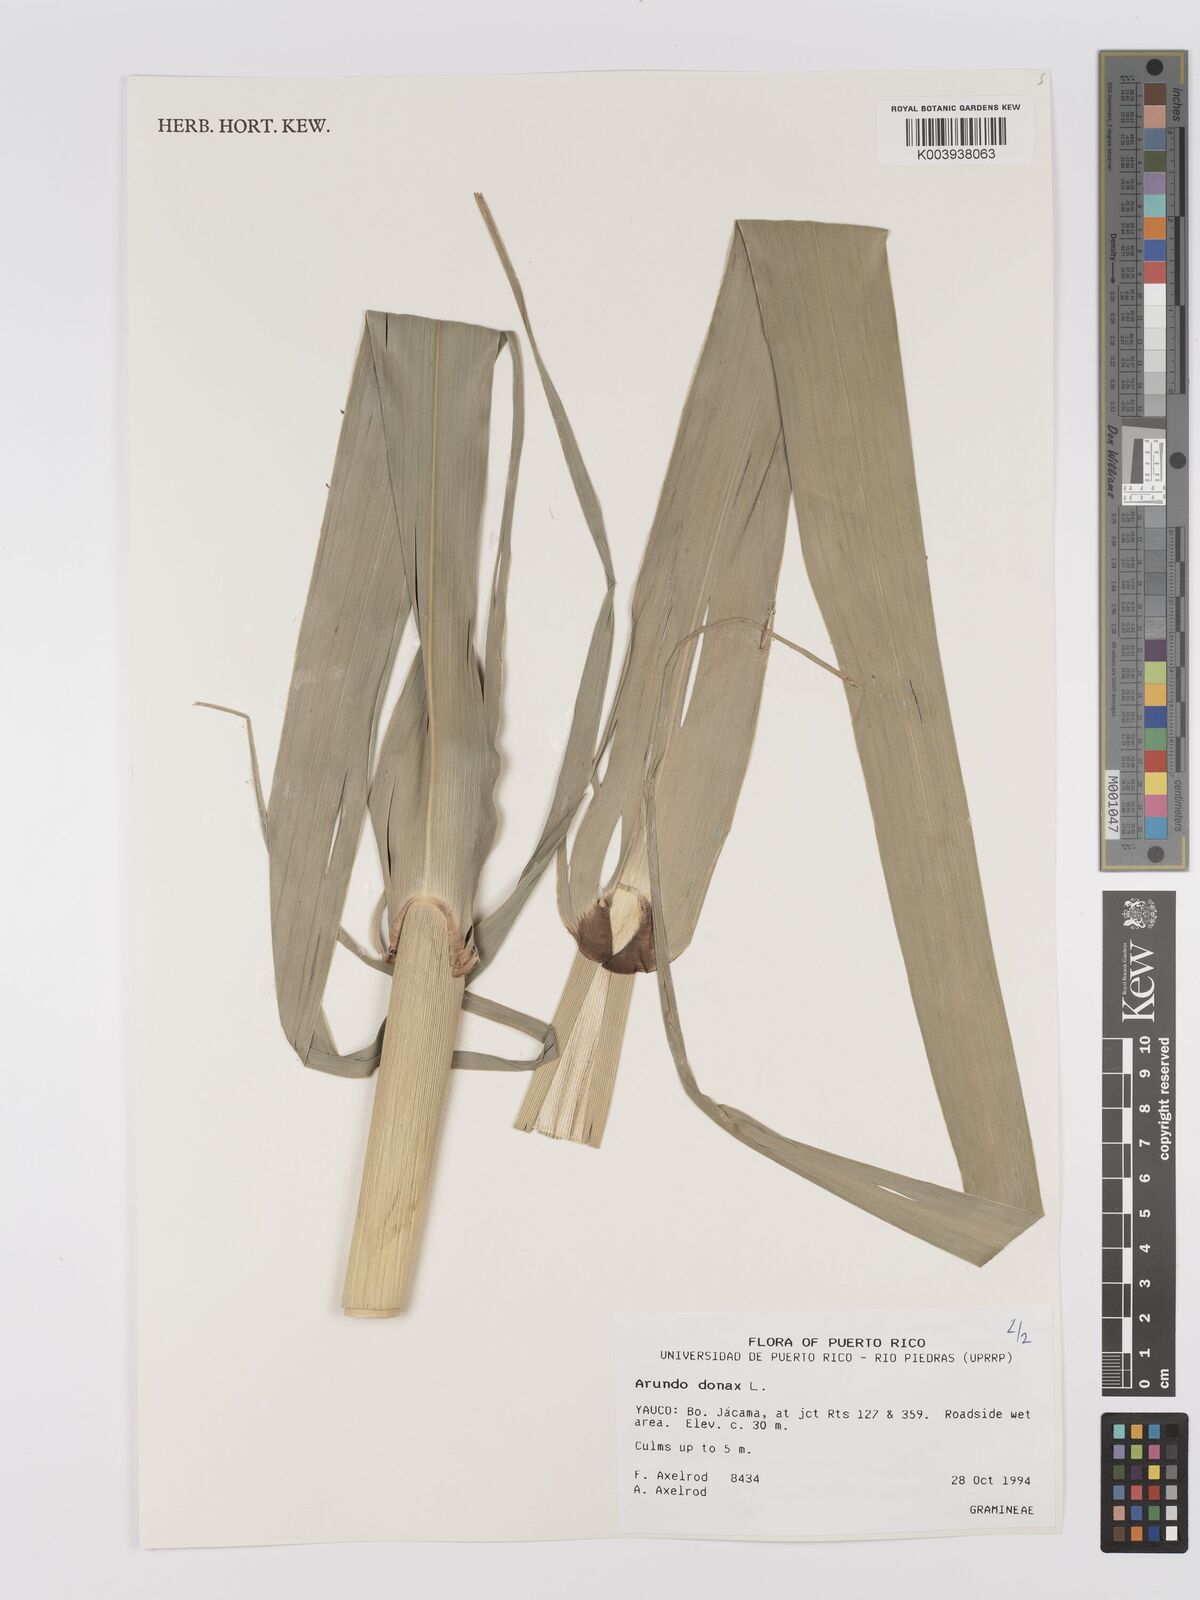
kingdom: Plantae
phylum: Tracheophyta
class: Liliopsida
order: Poales
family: Poaceae
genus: Arundo
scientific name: Arundo donax
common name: Giant reed
